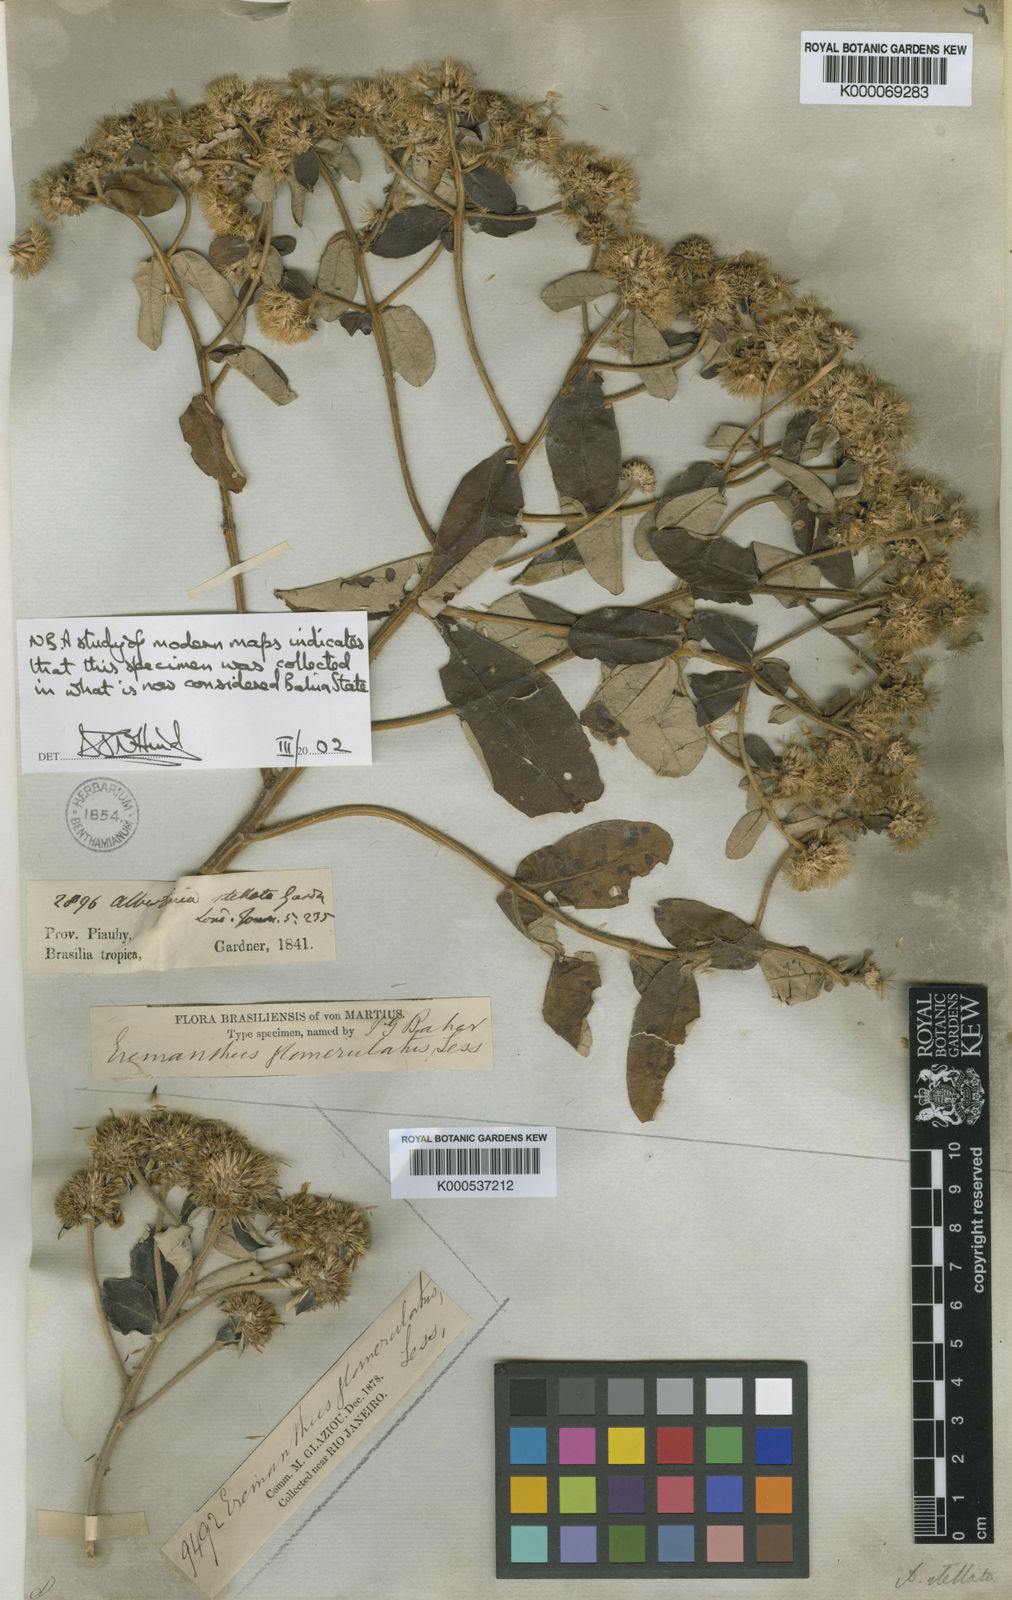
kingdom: Plantae
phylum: Tracheophyta
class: Magnoliopsida
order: Asterales
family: Asteraceae
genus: Eremanthus
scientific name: Eremanthus glomerulatus
